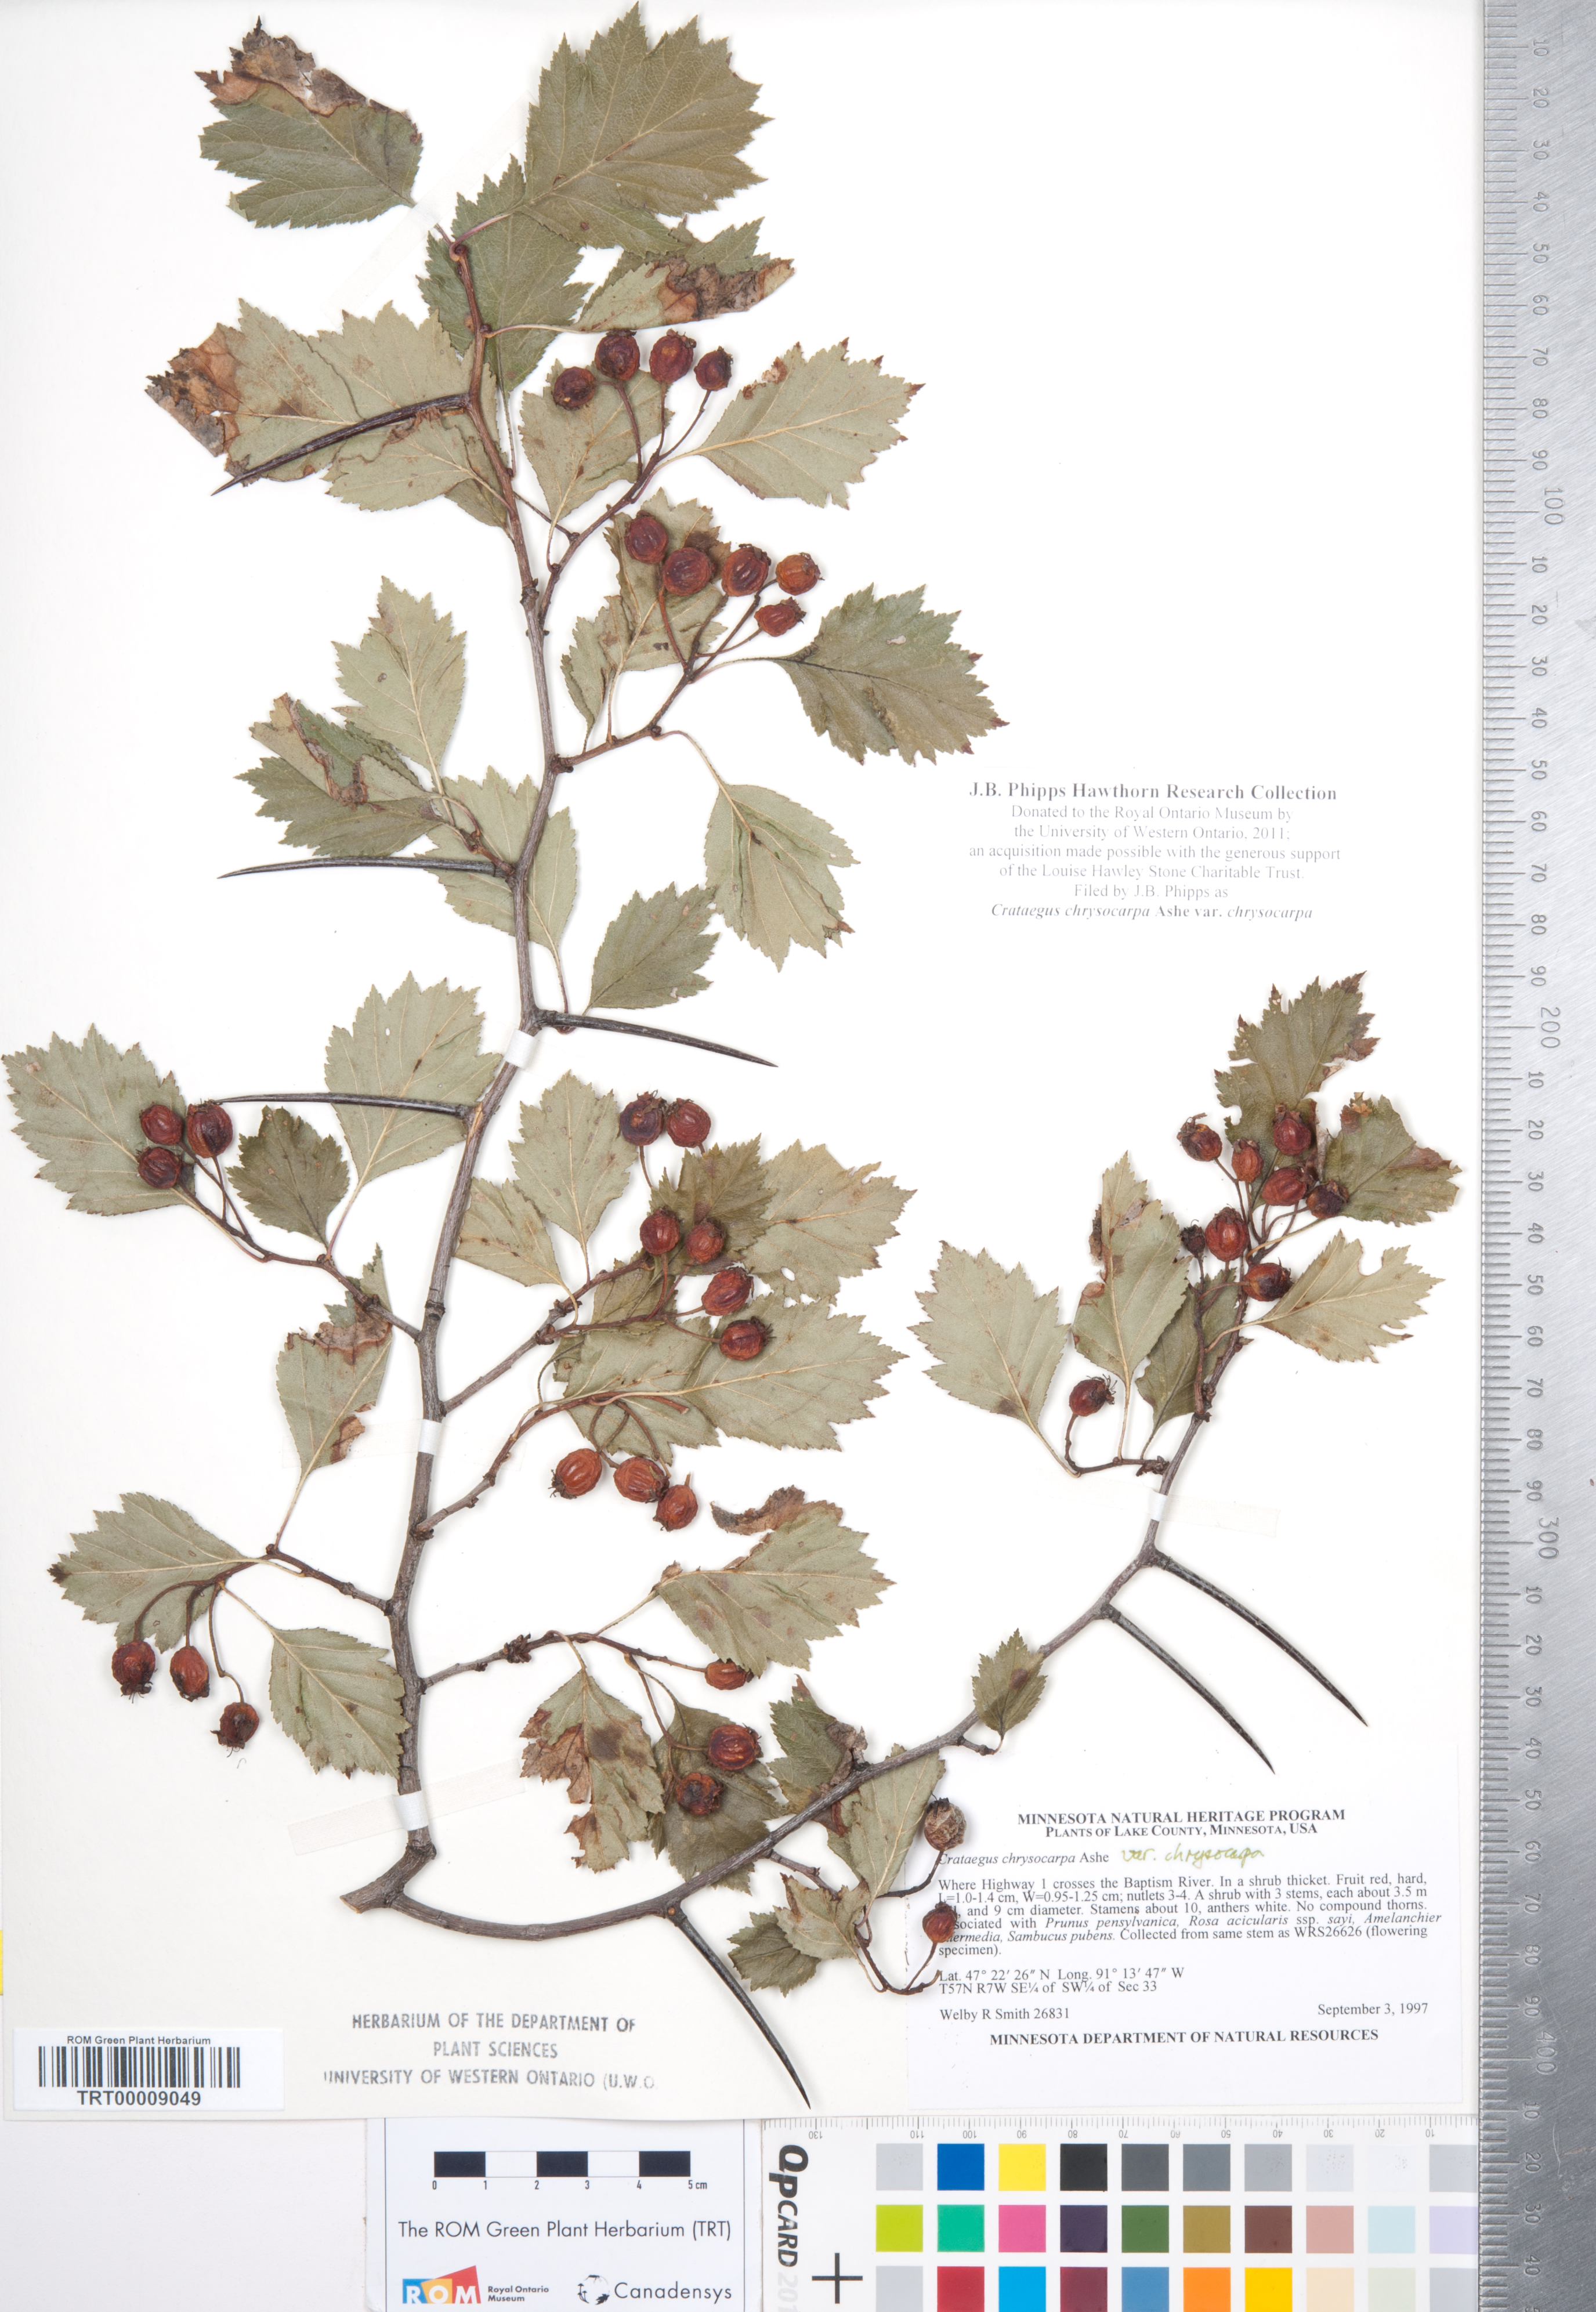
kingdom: Plantae
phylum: Tracheophyta
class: Magnoliopsida
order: Rosales
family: Rosaceae
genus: Crataegus
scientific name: Crataegus chrysocarpa
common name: Fire-berry hawthorn
